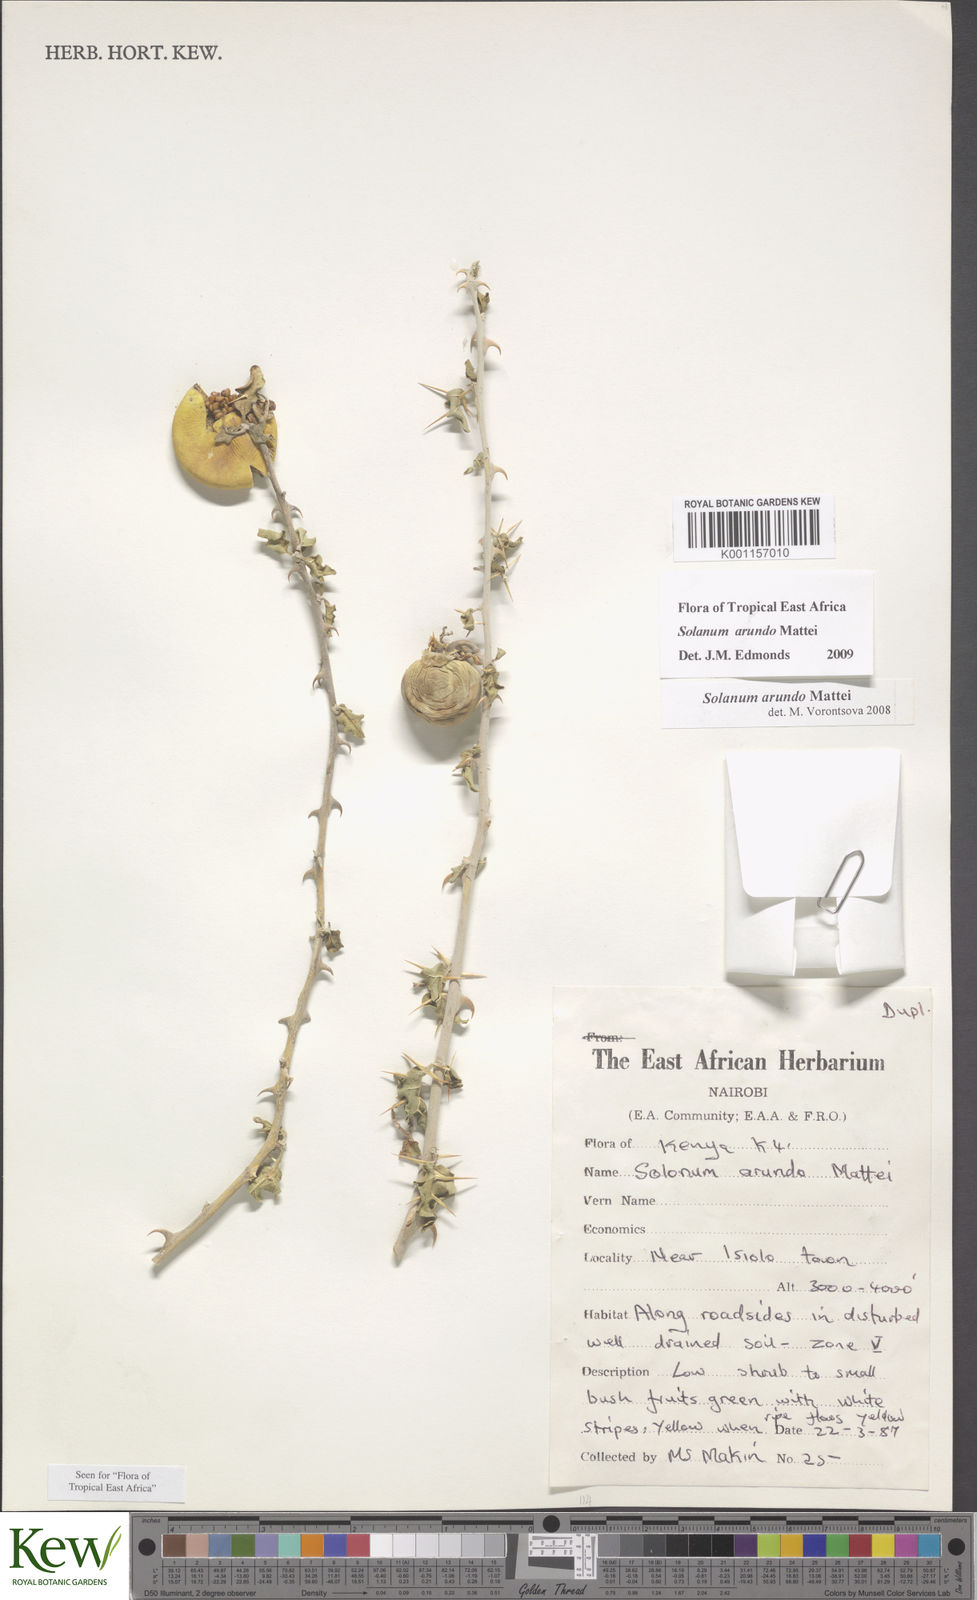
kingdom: Plantae
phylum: Tracheophyta
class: Magnoliopsida
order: Solanales
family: Solanaceae
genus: Solanum
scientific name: Solanum arundo
